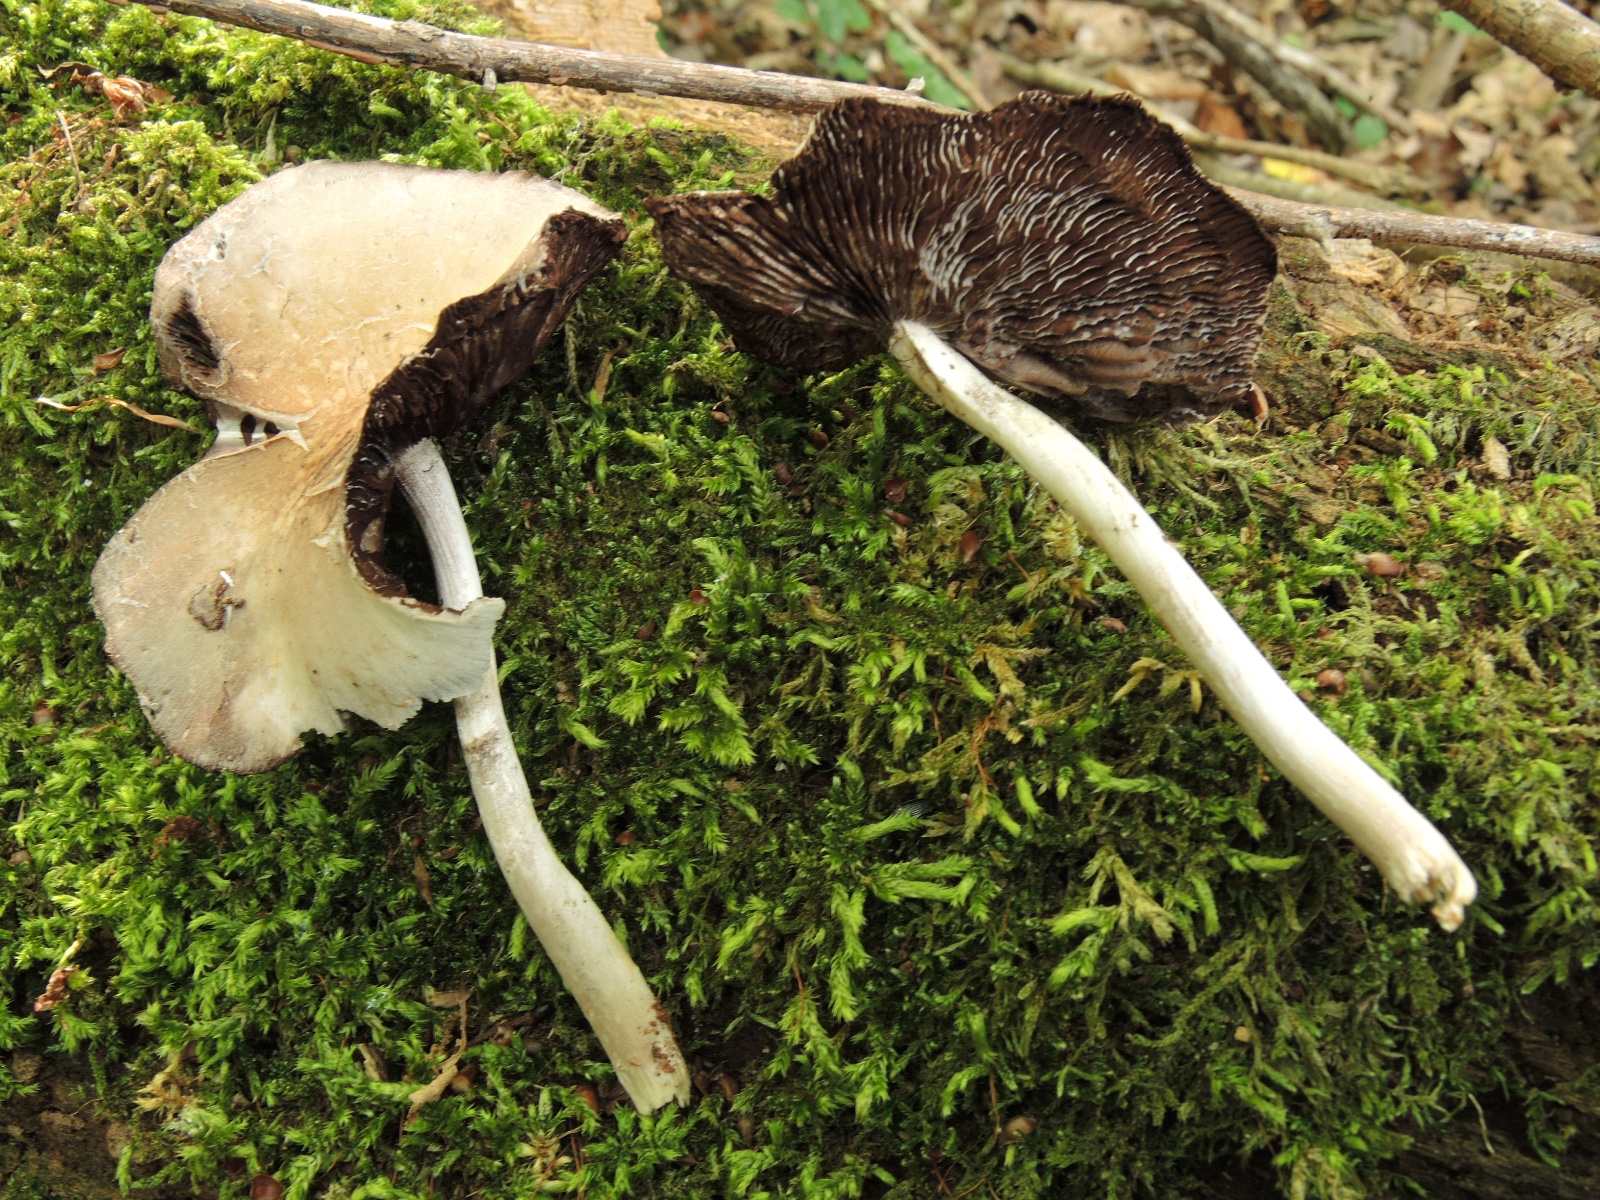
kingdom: Fungi
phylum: Basidiomycota
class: Agaricomycetes
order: Agaricales
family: Psathyrellaceae
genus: Candolleomyces
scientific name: Candolleomyces candolleanus
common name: Candolles mørkhat
